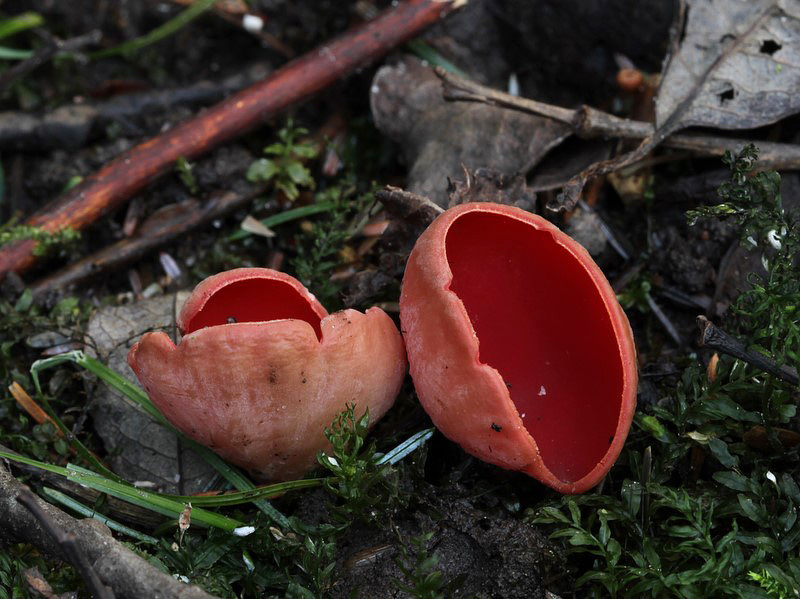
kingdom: Fungi
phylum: Ascomycota
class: Pezizomycetes
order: Pezizales
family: Sarcoscyphaceae
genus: Sarcoscypha
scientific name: Sarcoscypha austriaca
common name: krølhåret pragtbæger
